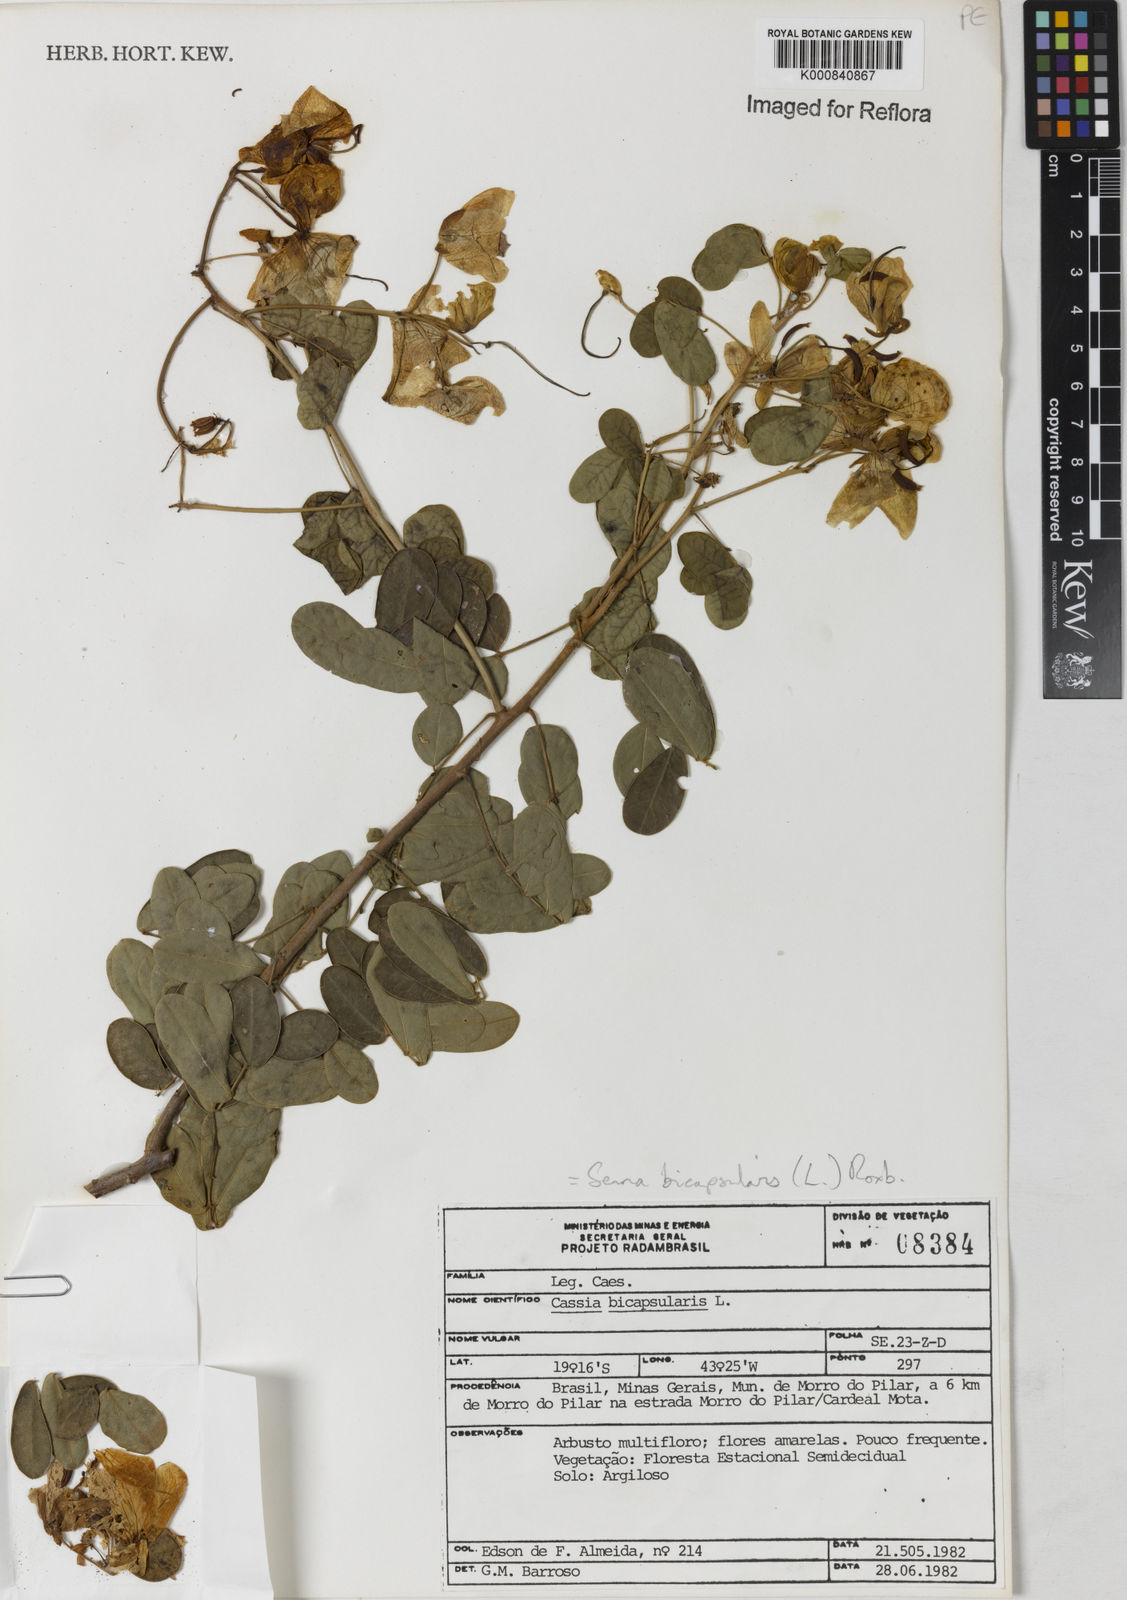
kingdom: Plantae
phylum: Tracheophyta
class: Magnoliopsida
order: Fabales
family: Fabaceae
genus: Senna
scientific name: Senna bicapsularis
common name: Christmasbush
